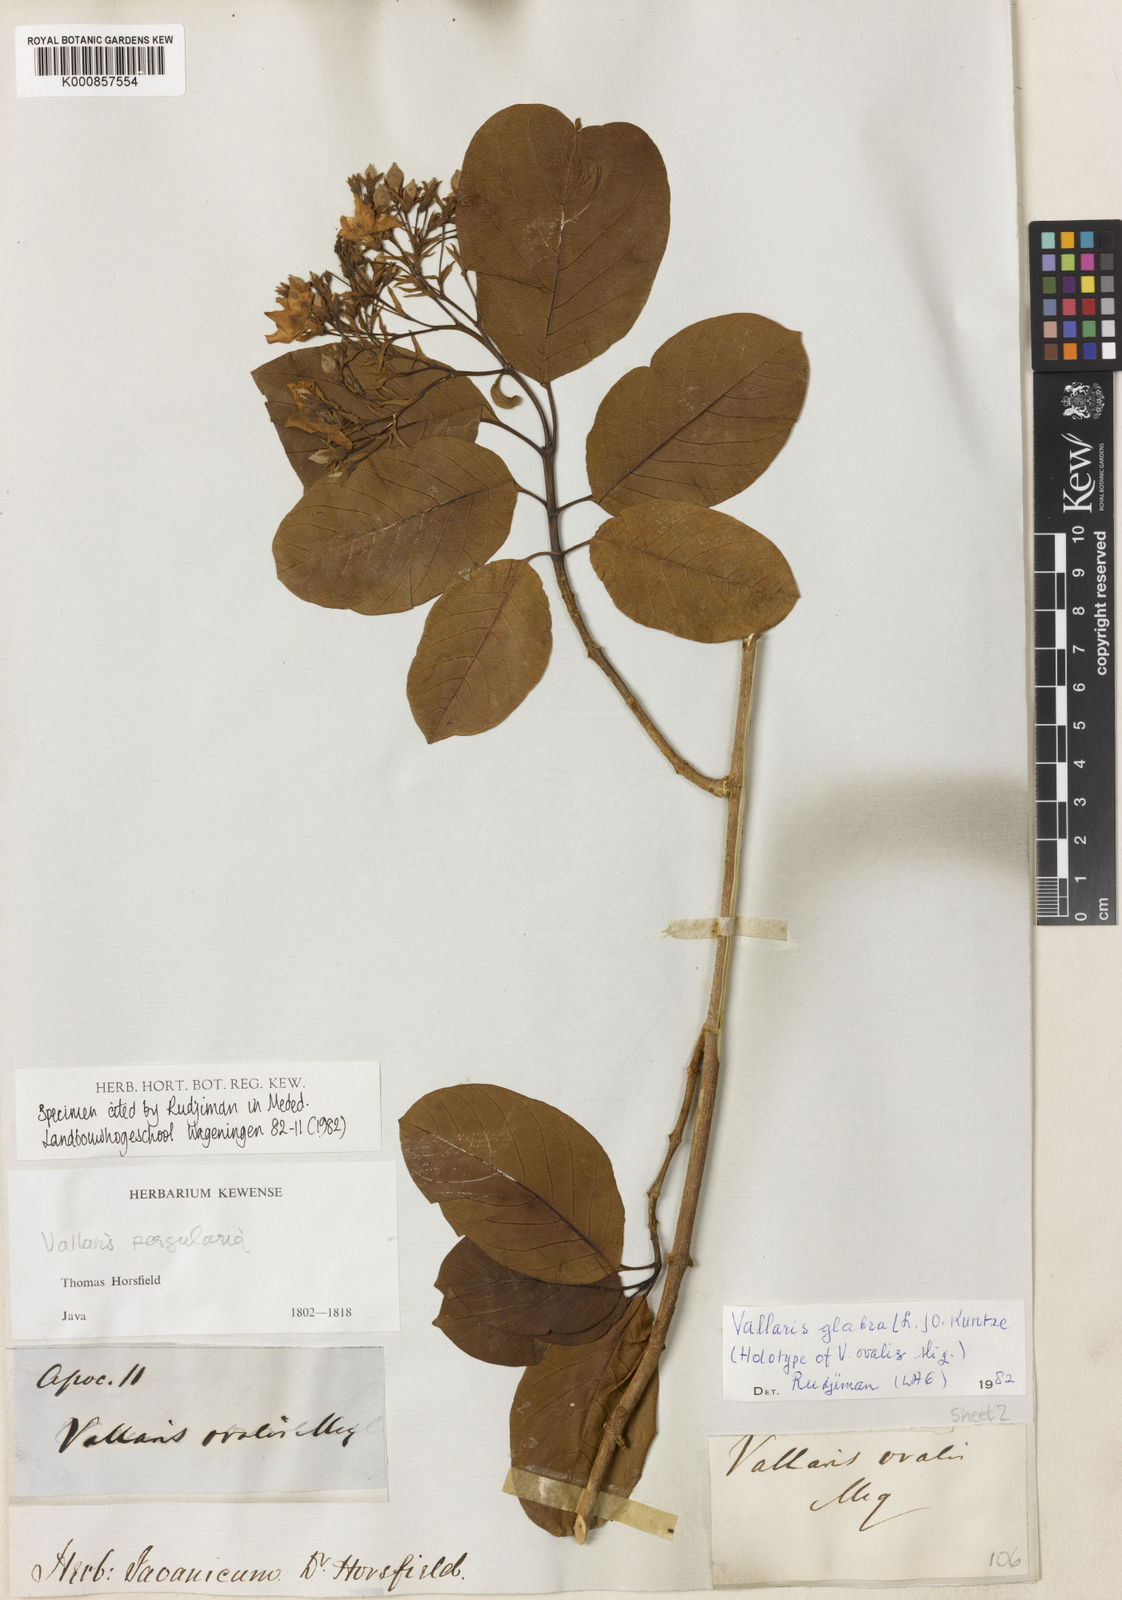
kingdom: Plantae
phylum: Tracheophyta
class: Magnoliopsida
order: Gentianales
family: Apocynaceae
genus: Vallaris
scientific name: Vallaris glabra
